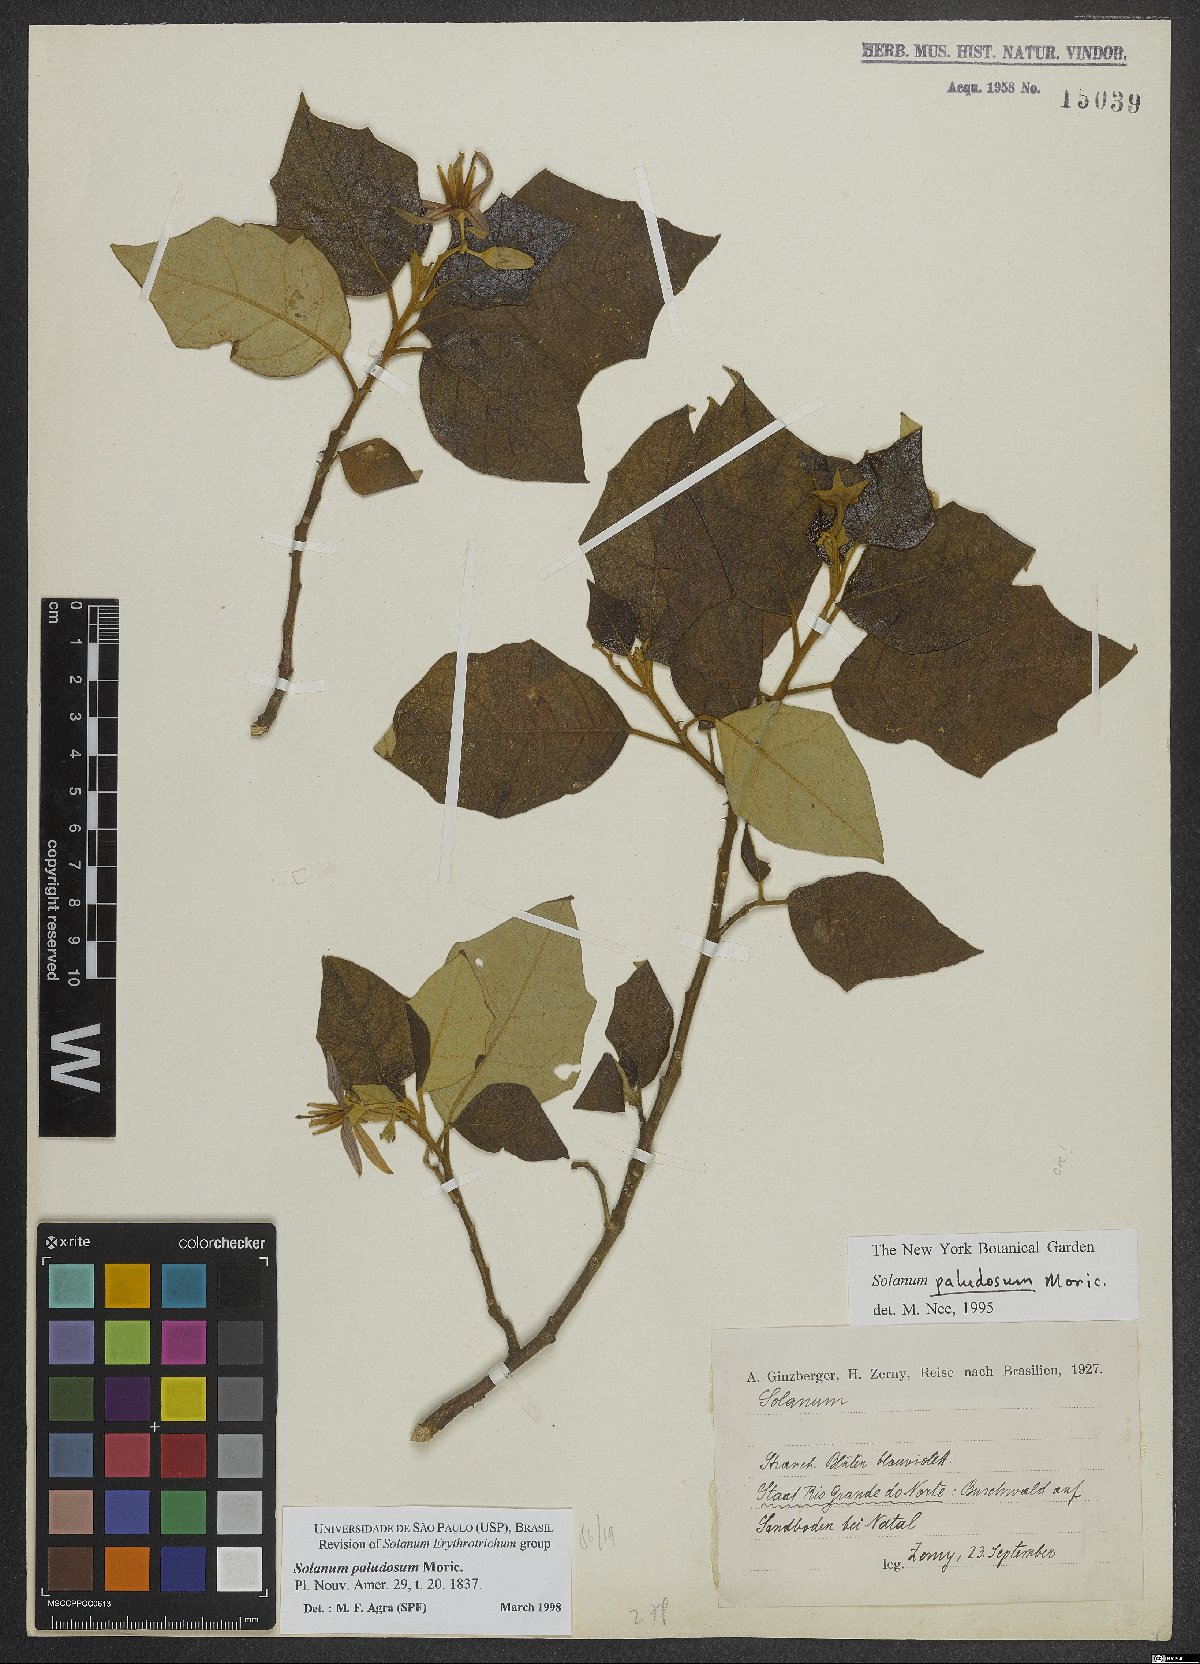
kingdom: Plantae
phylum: Tracheophyta
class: Magnoliopsida
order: Solanales
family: Solanaceae
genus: Solanum
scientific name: Solanum paludosum
